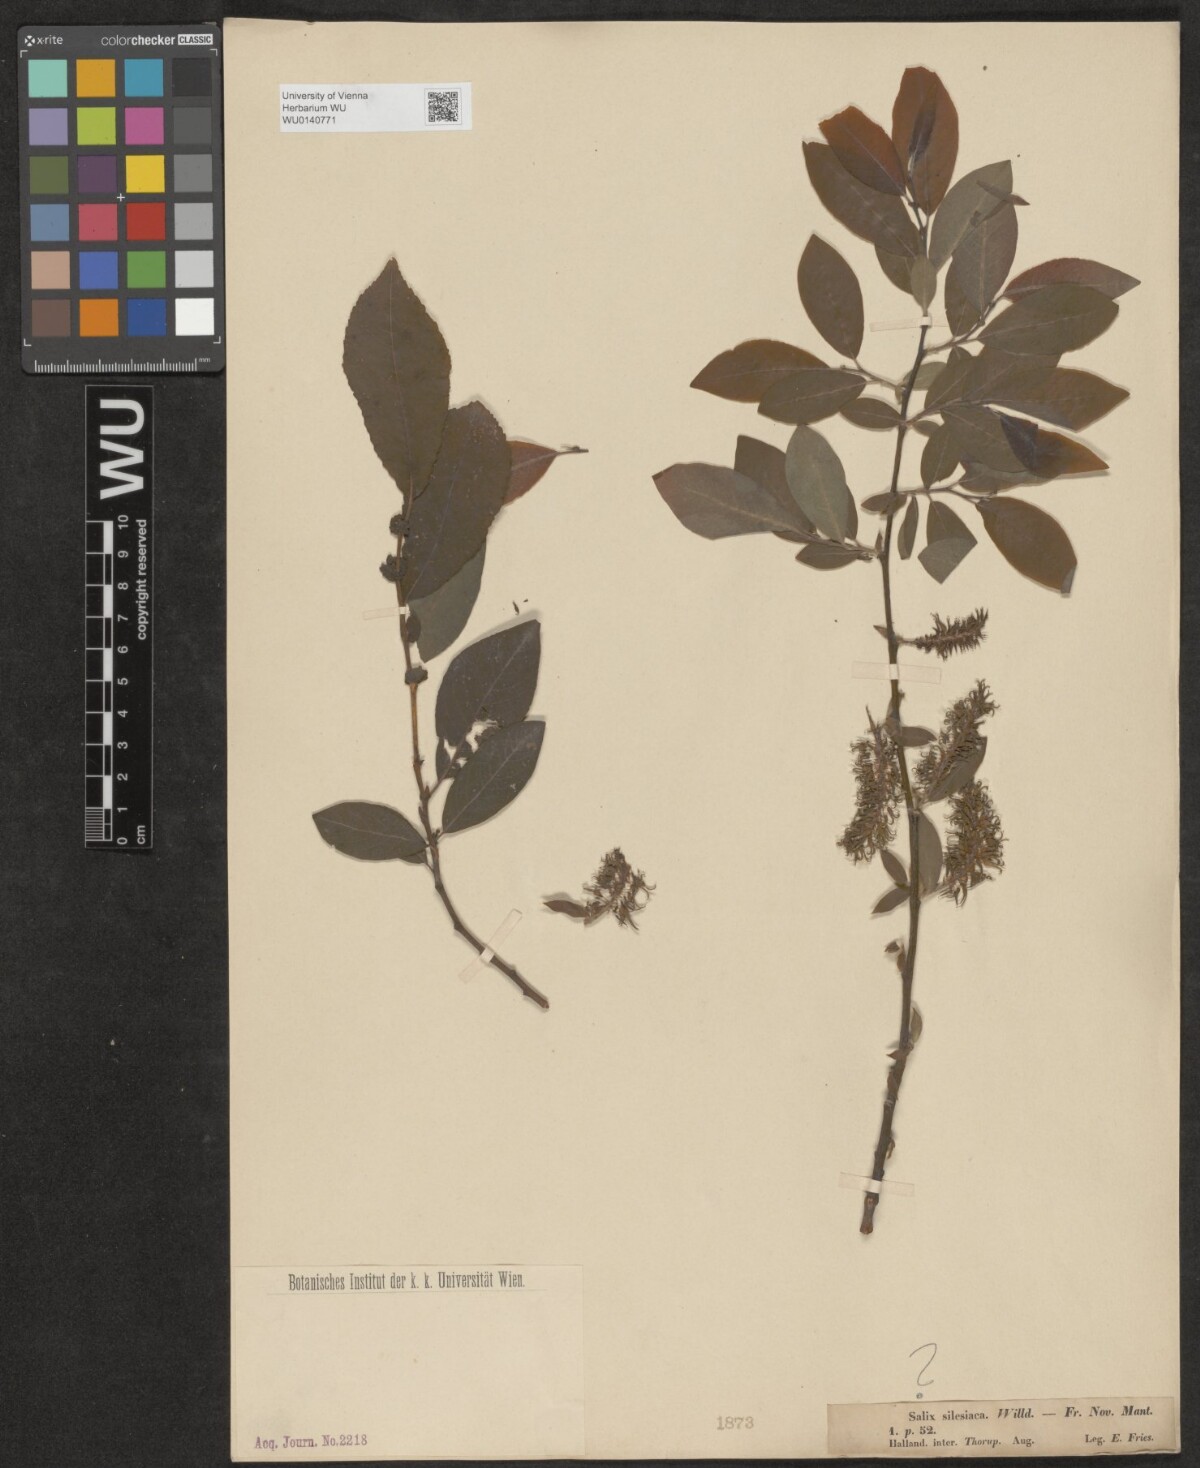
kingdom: Plantae
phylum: Tracheophyta
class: Magnoliopsida
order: Malpighiales
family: Salicaceae
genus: Salix
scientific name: Salix
